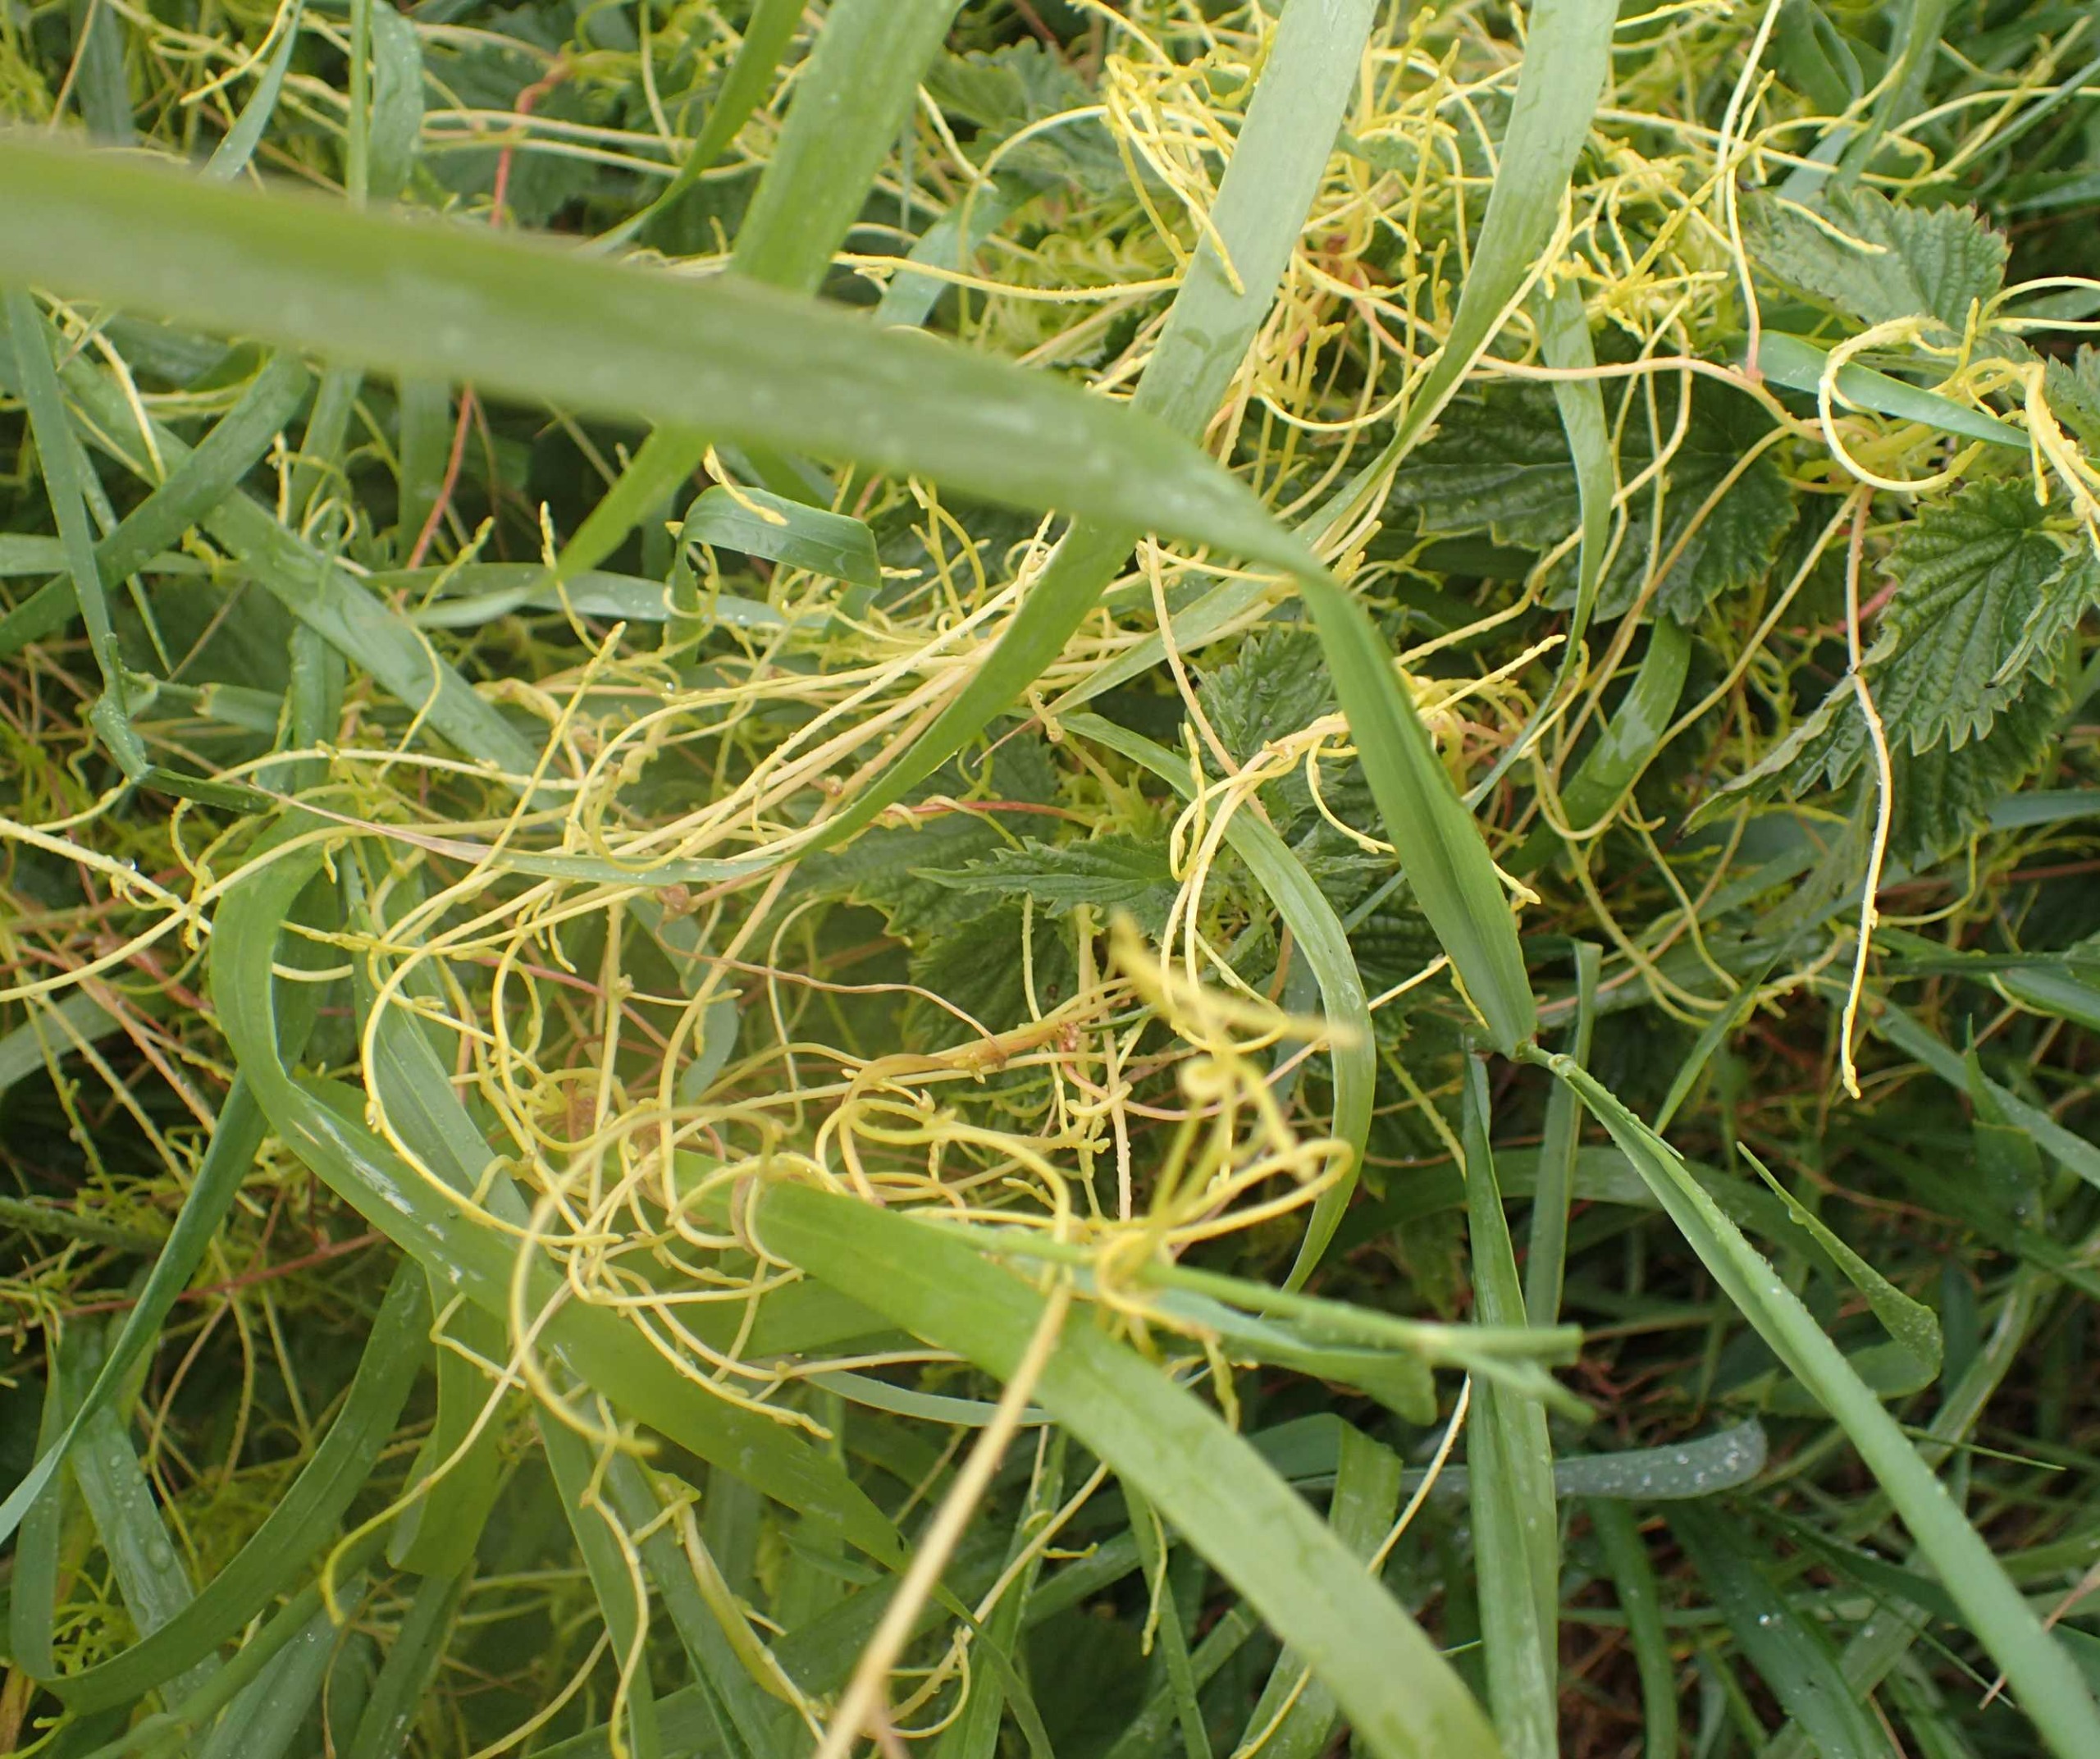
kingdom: Plantae
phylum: Tracheophyta
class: Magnoliopsida
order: Solanales
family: Convolvulaceae
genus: Cuscuta
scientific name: Cuscuta europaea
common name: Nælde-silke
